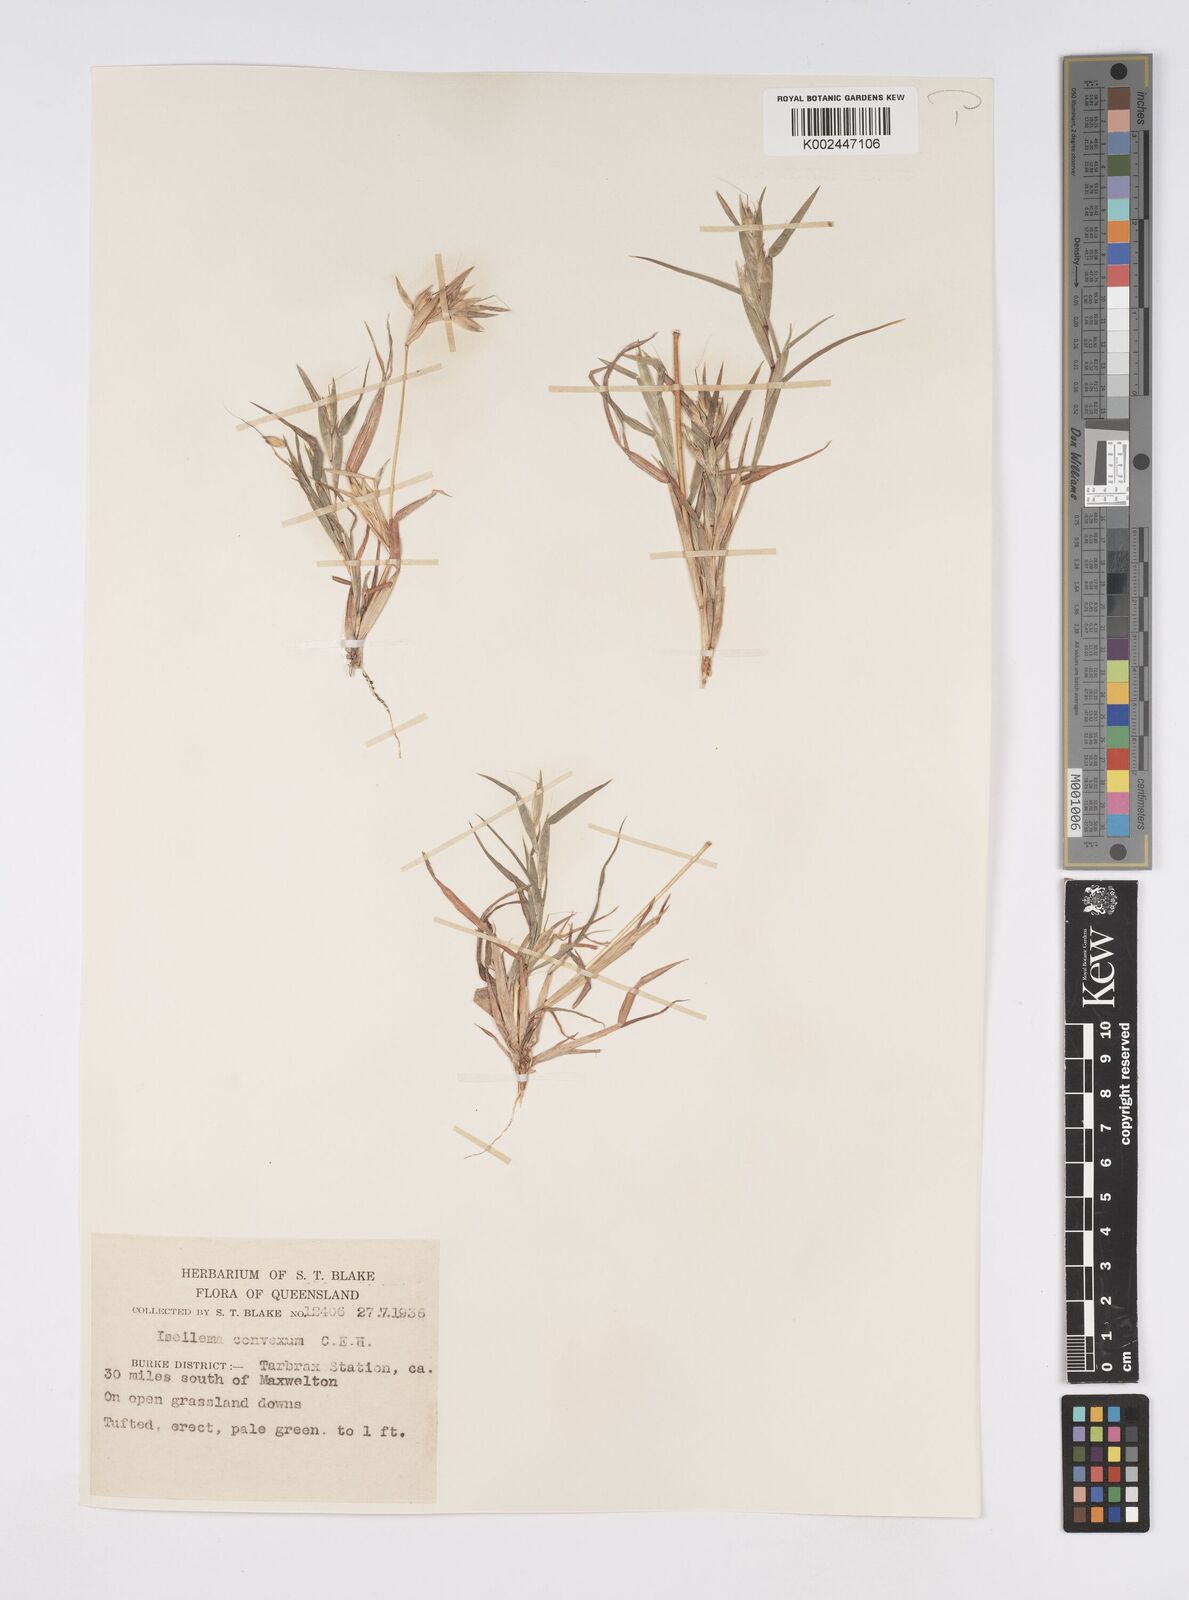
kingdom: Plantae
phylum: Tracheophyta
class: Liliopsida
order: Poales
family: Poaceae
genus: Iseilema
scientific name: Iseilema convexum
